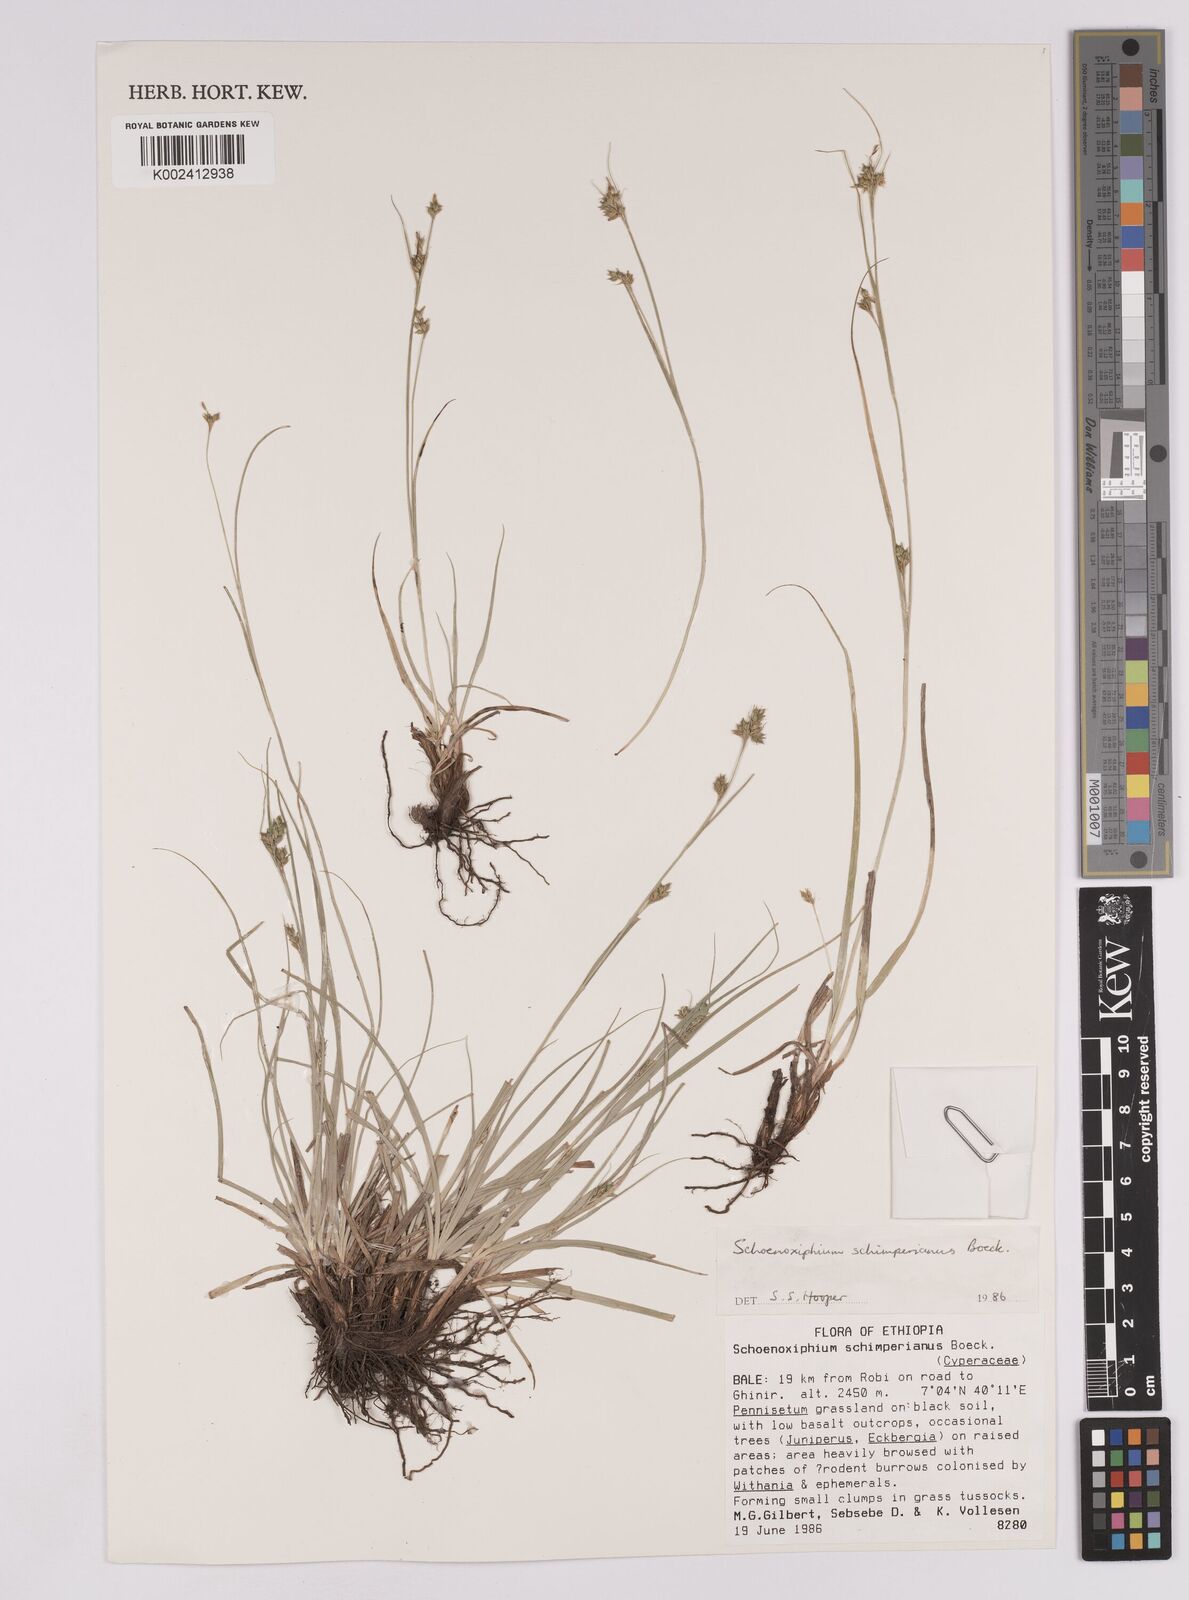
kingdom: Plantae
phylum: Tracheophyta
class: Liliopsida
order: Poales
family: Cyperaceae
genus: Carex
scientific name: Carex schimperiana
